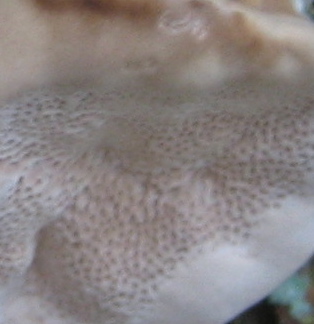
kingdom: Fungi
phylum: Basidiomycota
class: Agaricomycetes
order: Polyporales
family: Polyporaceae
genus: Trametes
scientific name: Trametes
